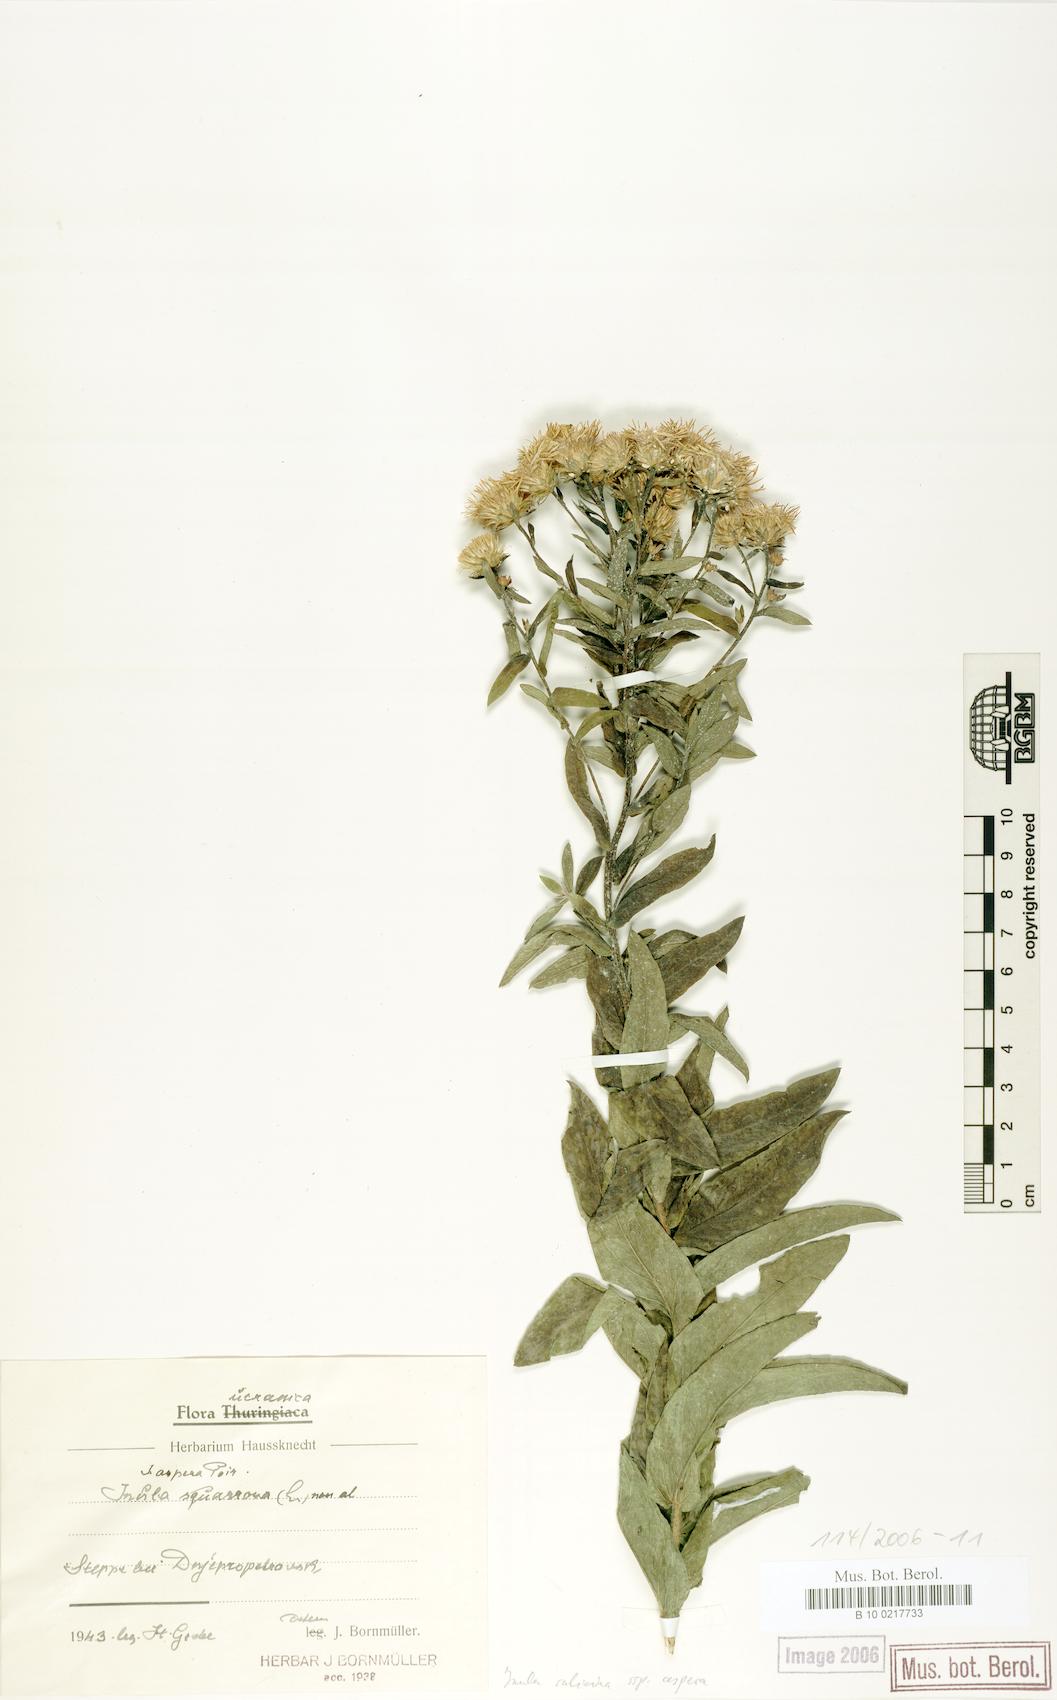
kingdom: Plantae
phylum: Tracheophyta
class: Magnoliopsida
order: Asterales
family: Asteraceae
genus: Pentanema
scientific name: Pentanema salicinum
